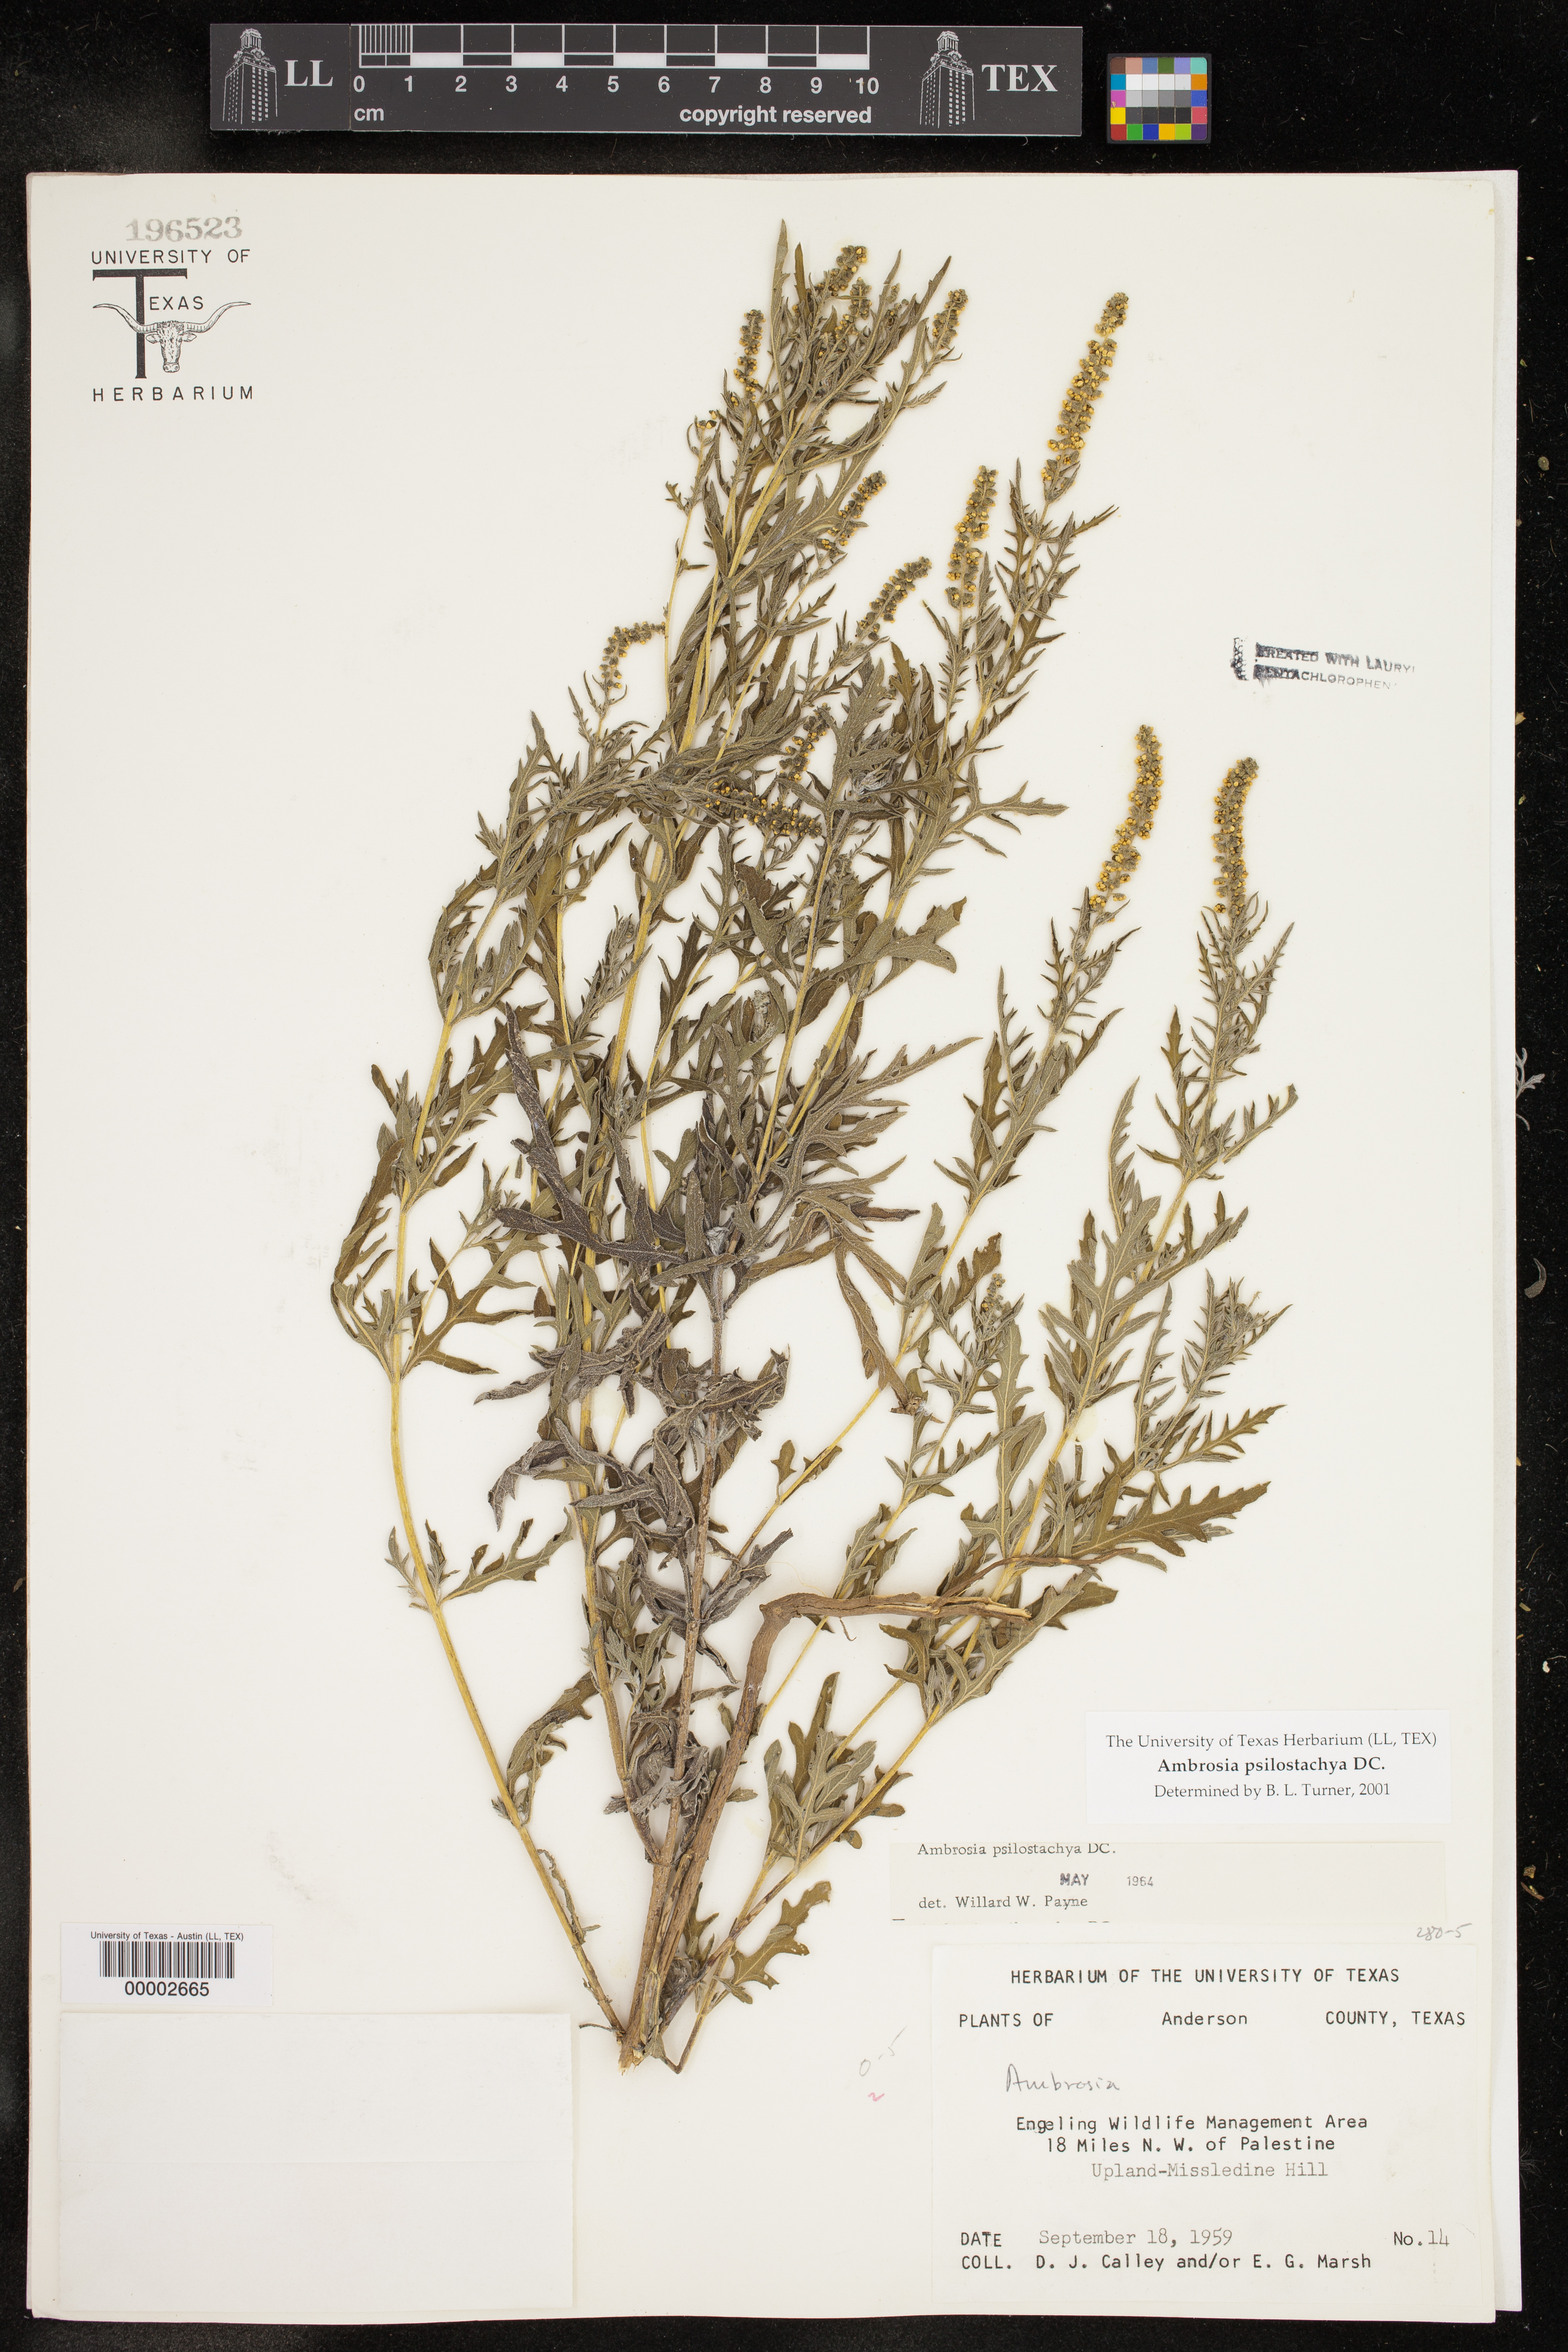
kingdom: Plantae
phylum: Tracheophyta
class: Magnoliopsida
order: Asterales
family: Asteraceae
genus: Ambrosia
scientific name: Ambrosia psilostachya
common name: Perennial ragweed
